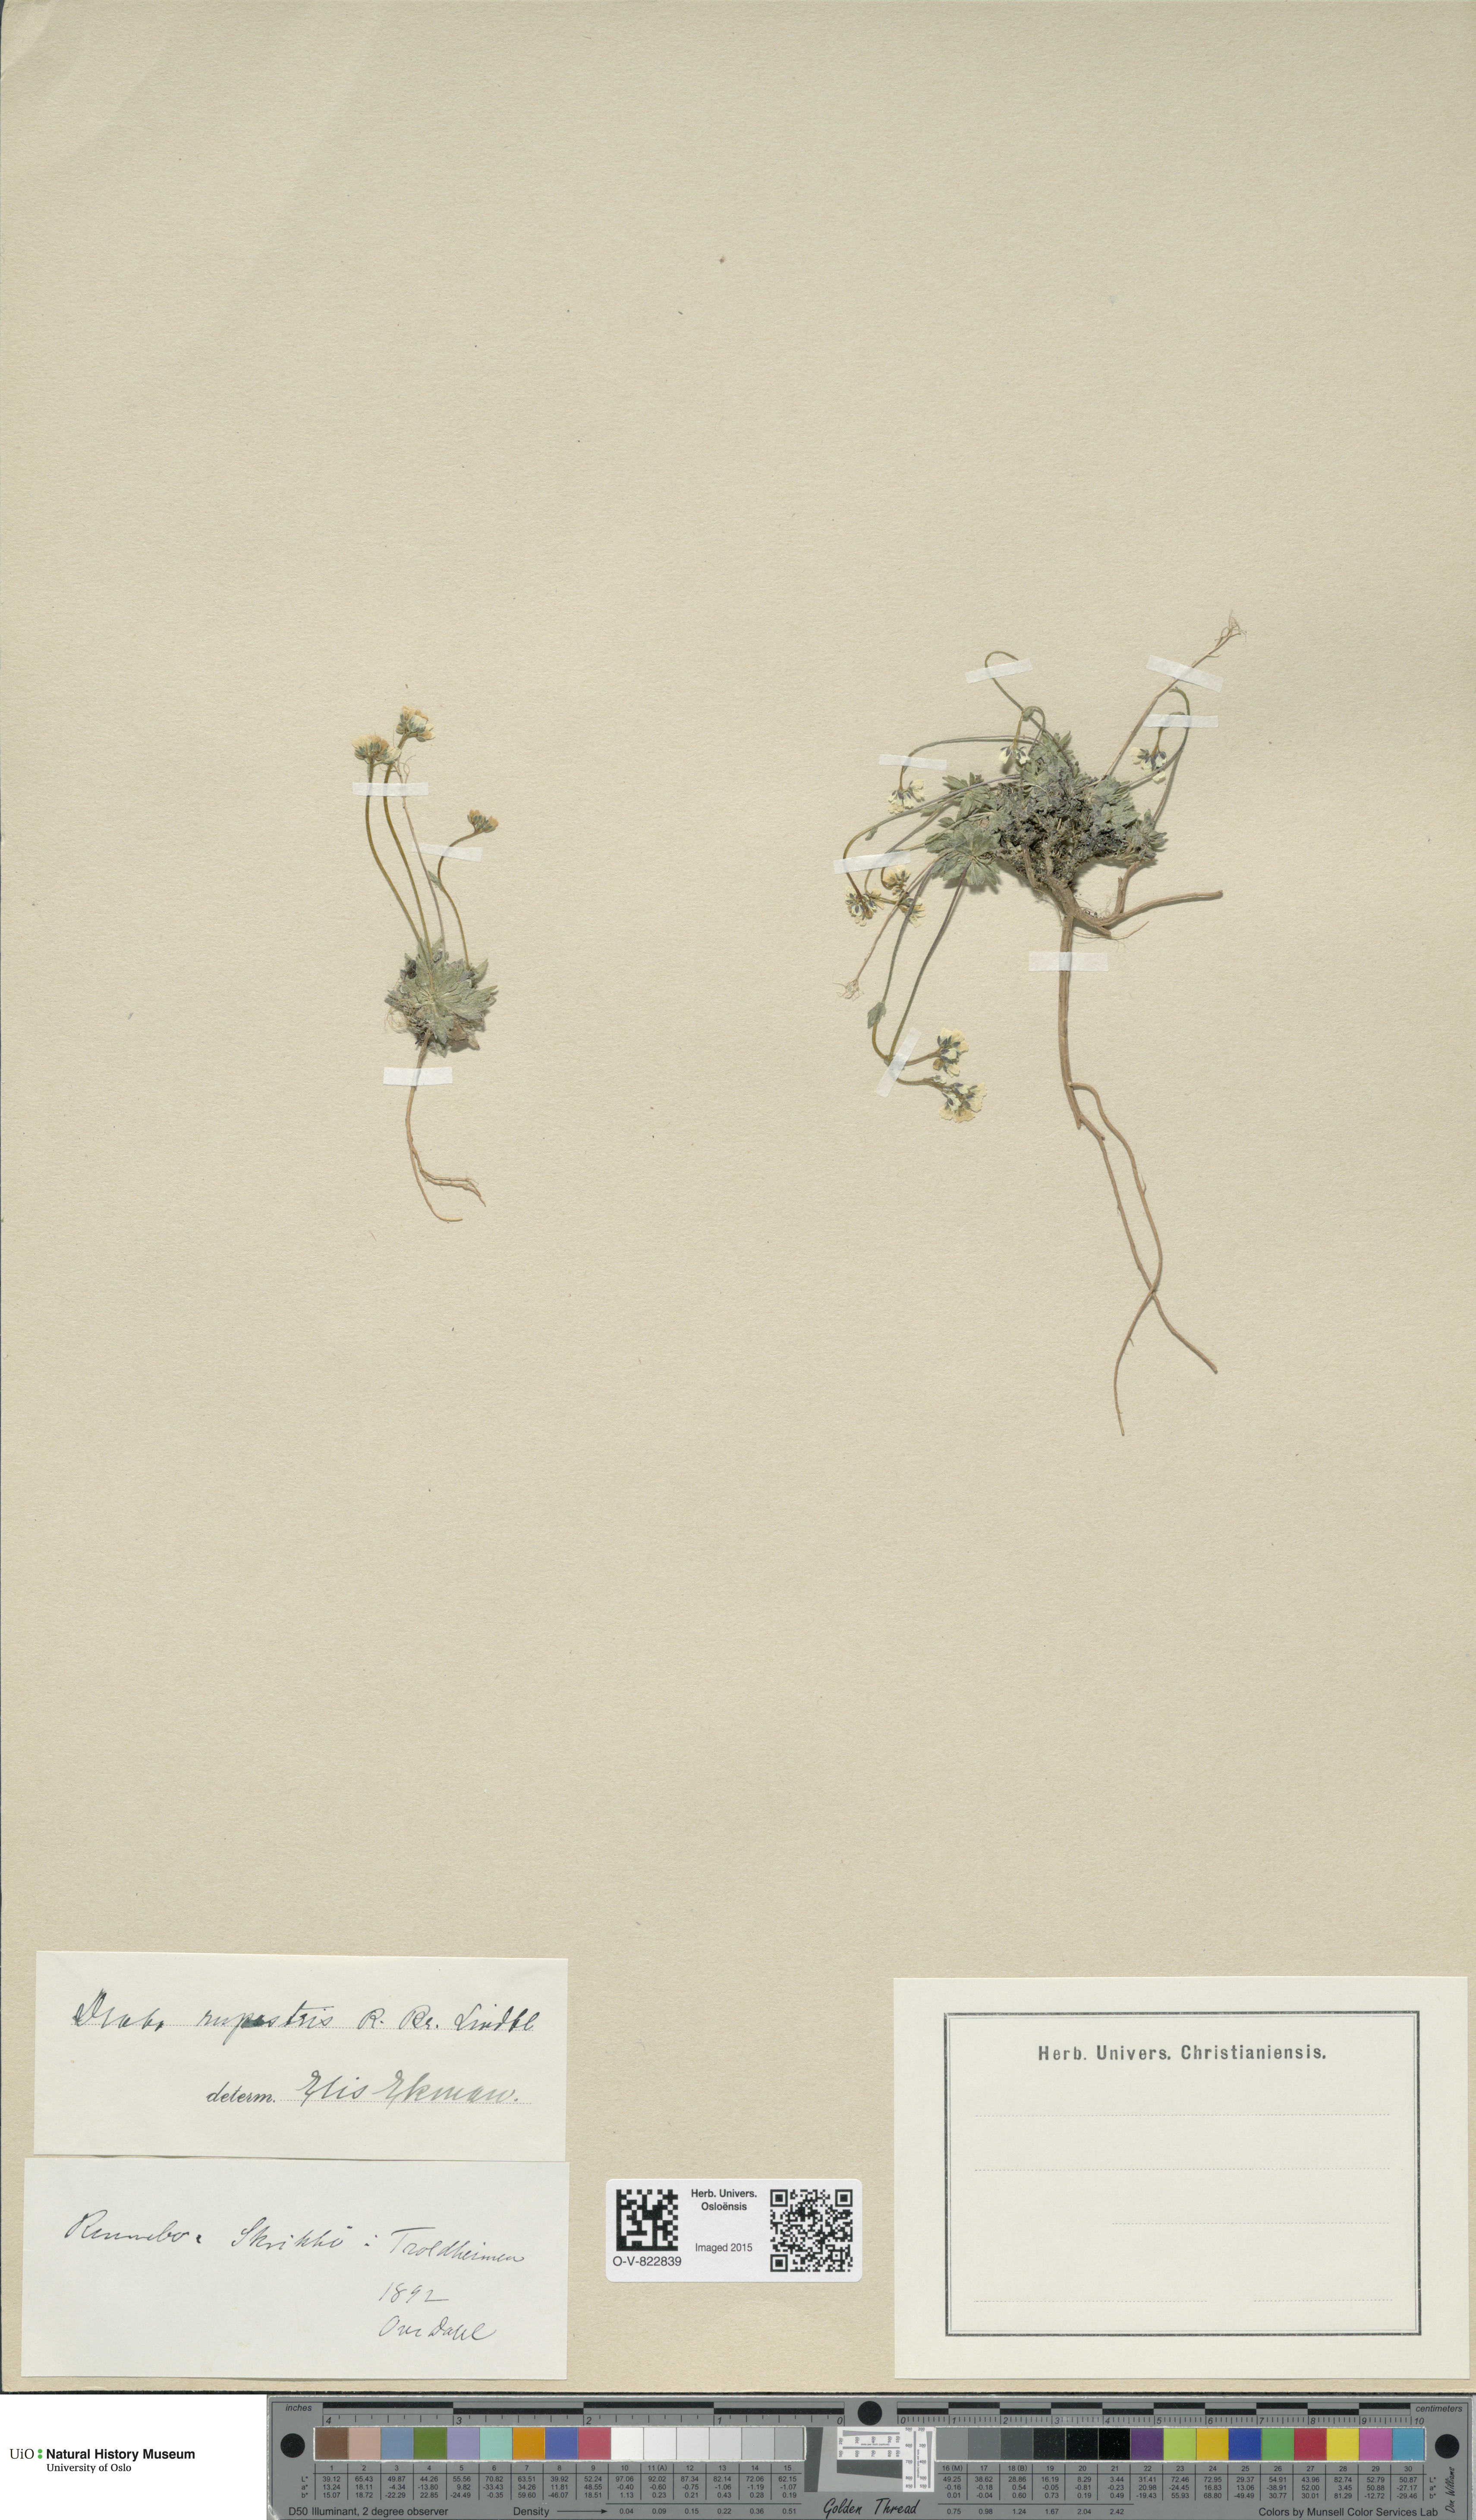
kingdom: Plantae
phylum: Tracheophyta
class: Magnoliopsida
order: Brassicales
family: Brassicaceae
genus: Draba
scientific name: Draba norvegica
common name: Rock whitlowgrass
